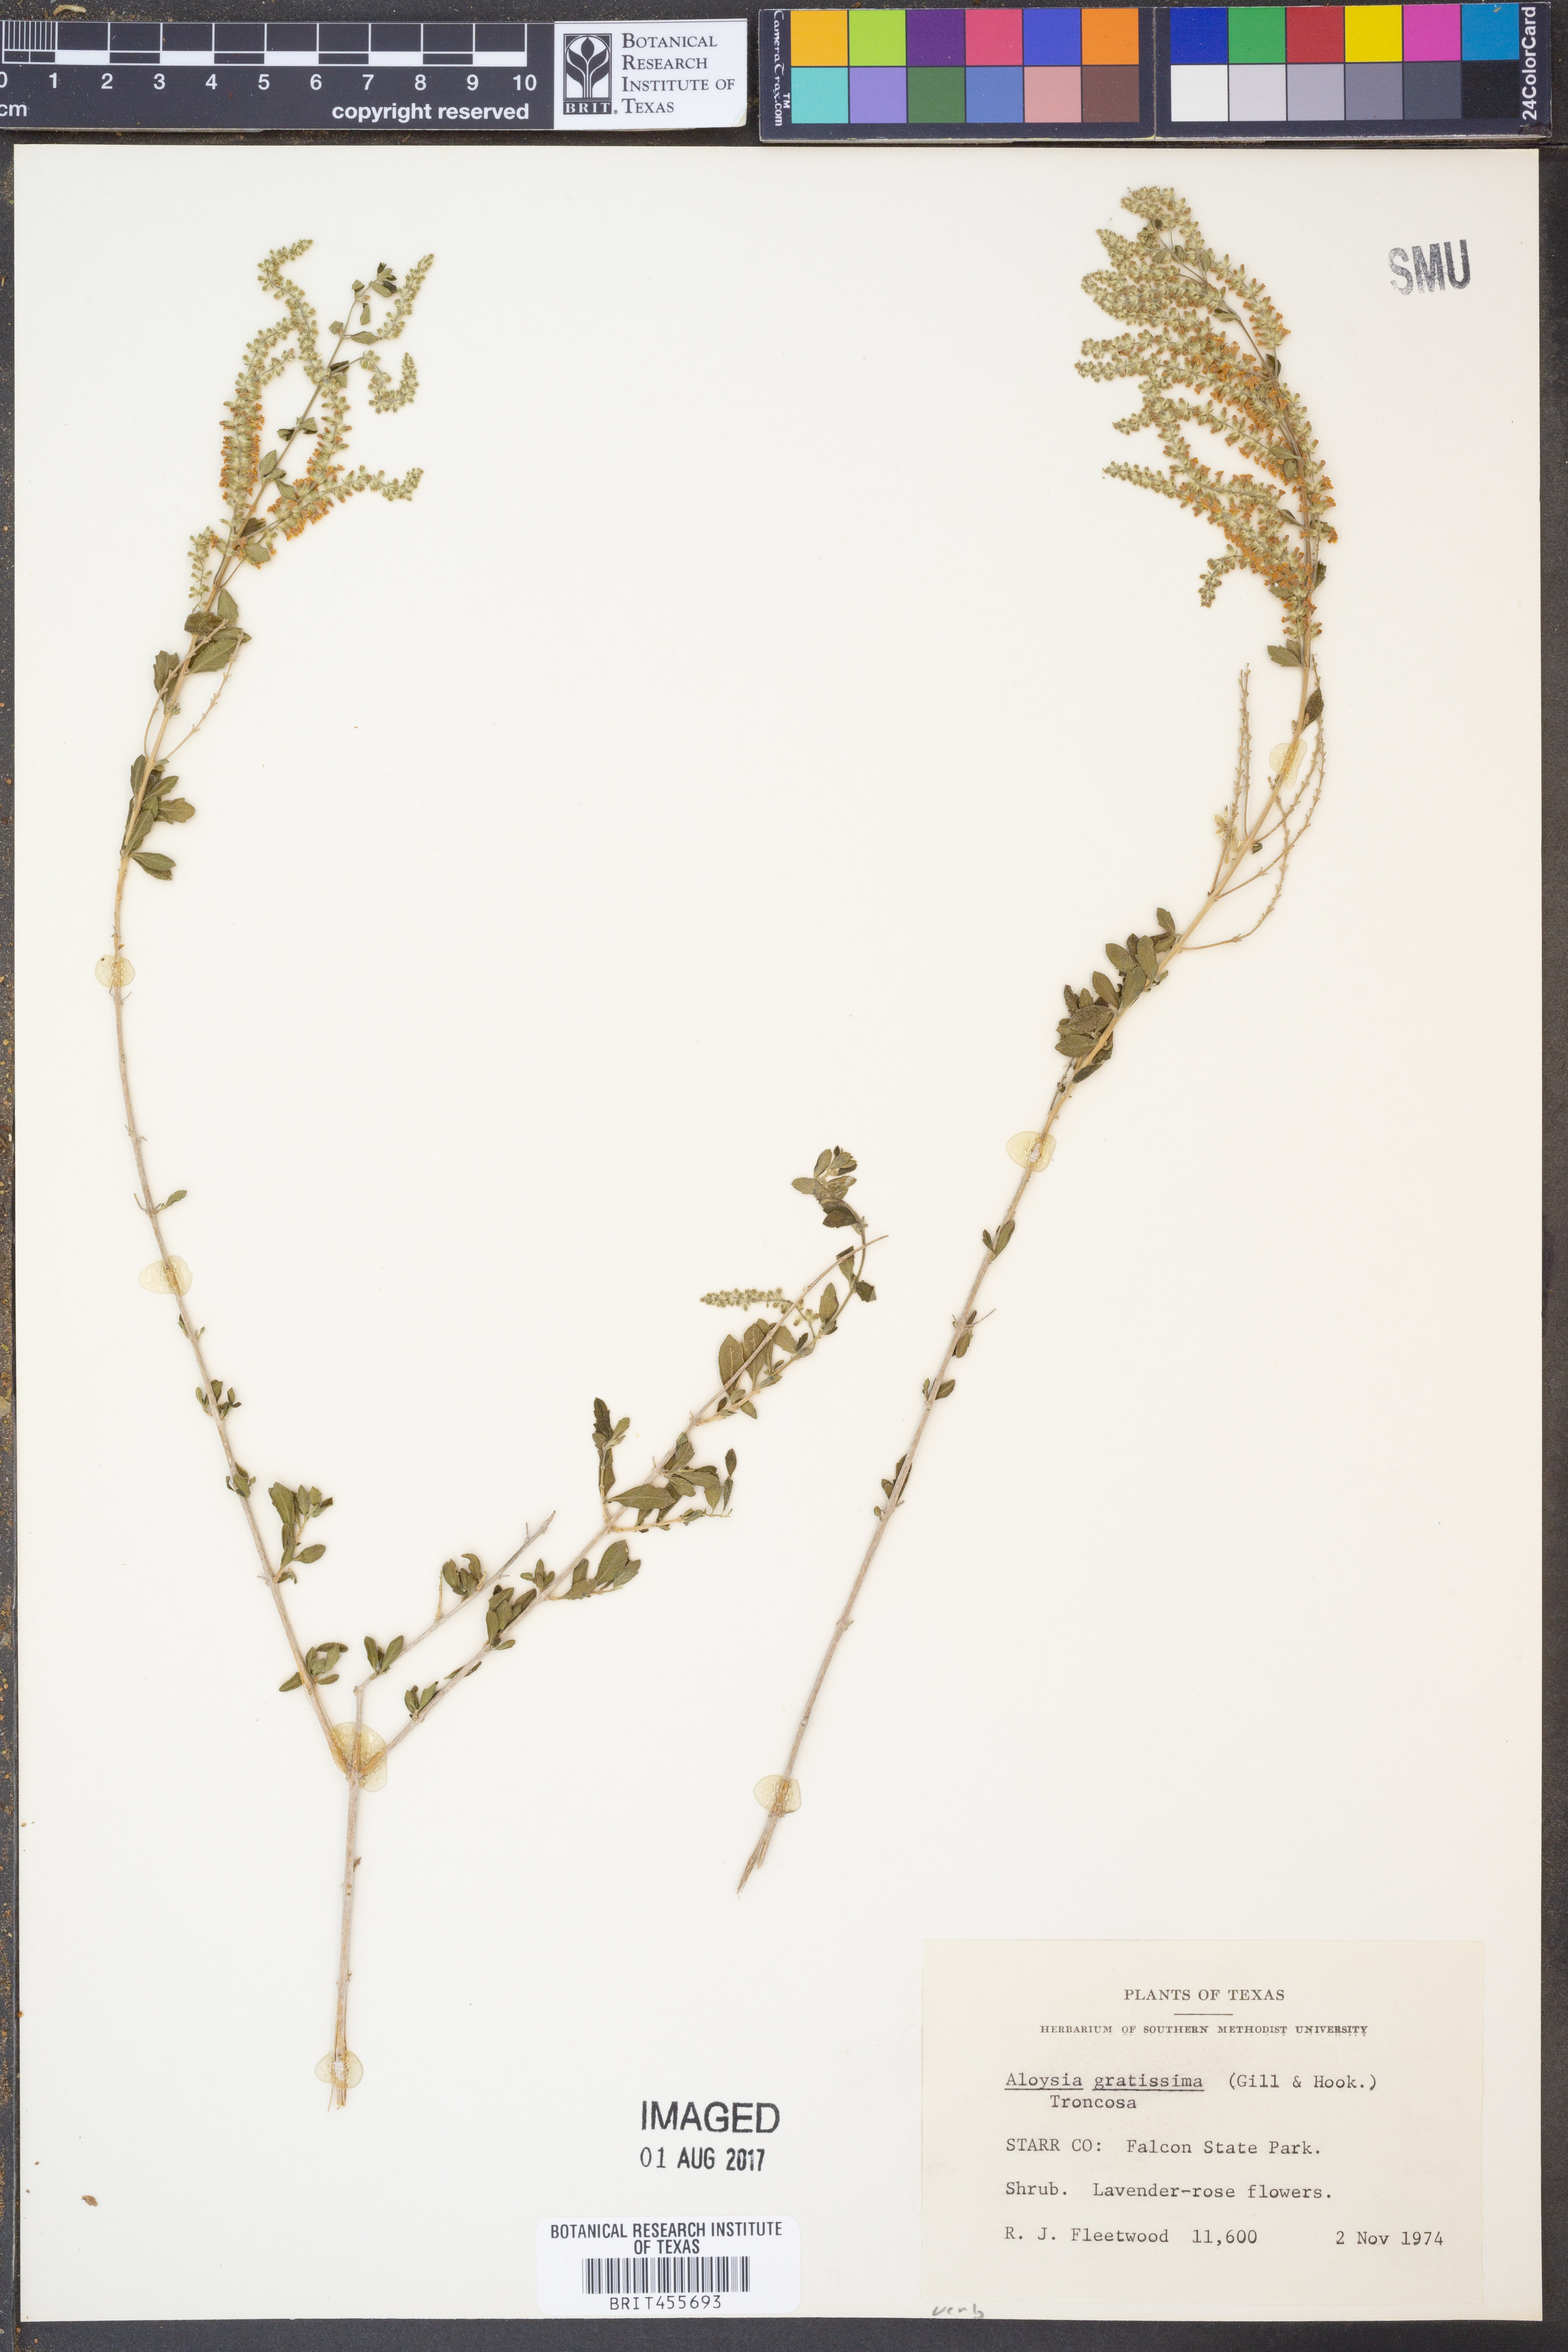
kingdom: Plantae
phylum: Tracheophyta
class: Magnoliopsida
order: Lamiales
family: Verbenaceae
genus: Aloysia
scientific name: Aloysia gratissima
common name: Common bee-brush
